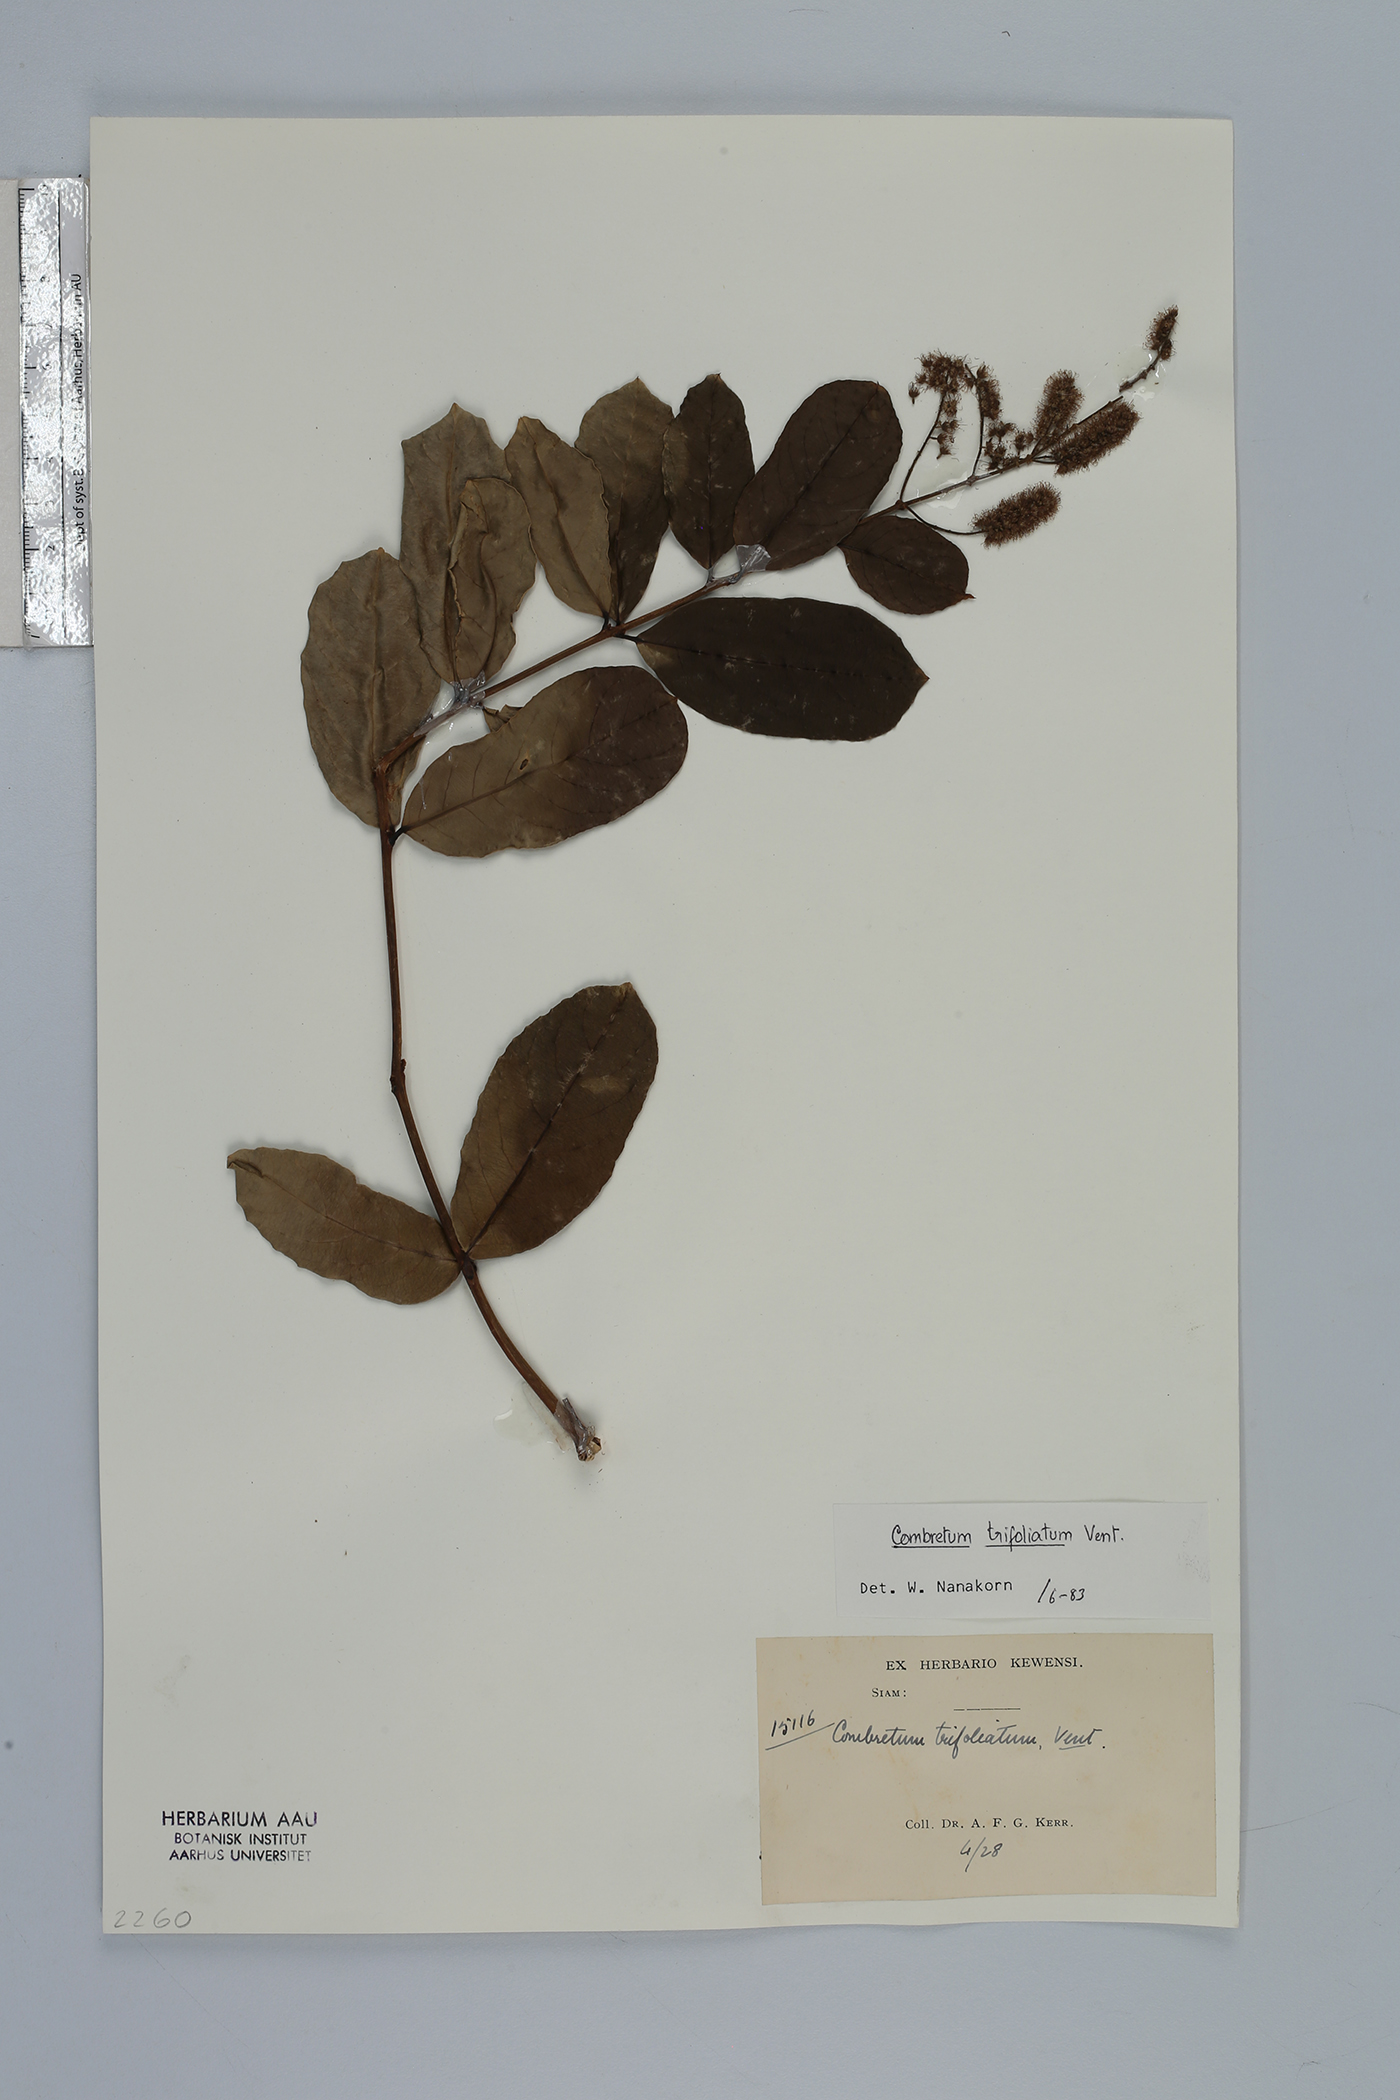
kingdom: Plantae
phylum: Tracheophyta
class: Magnoliopsida
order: Myrtales
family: Combretaceae
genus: Combretum
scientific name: Combretum trifoliatum
